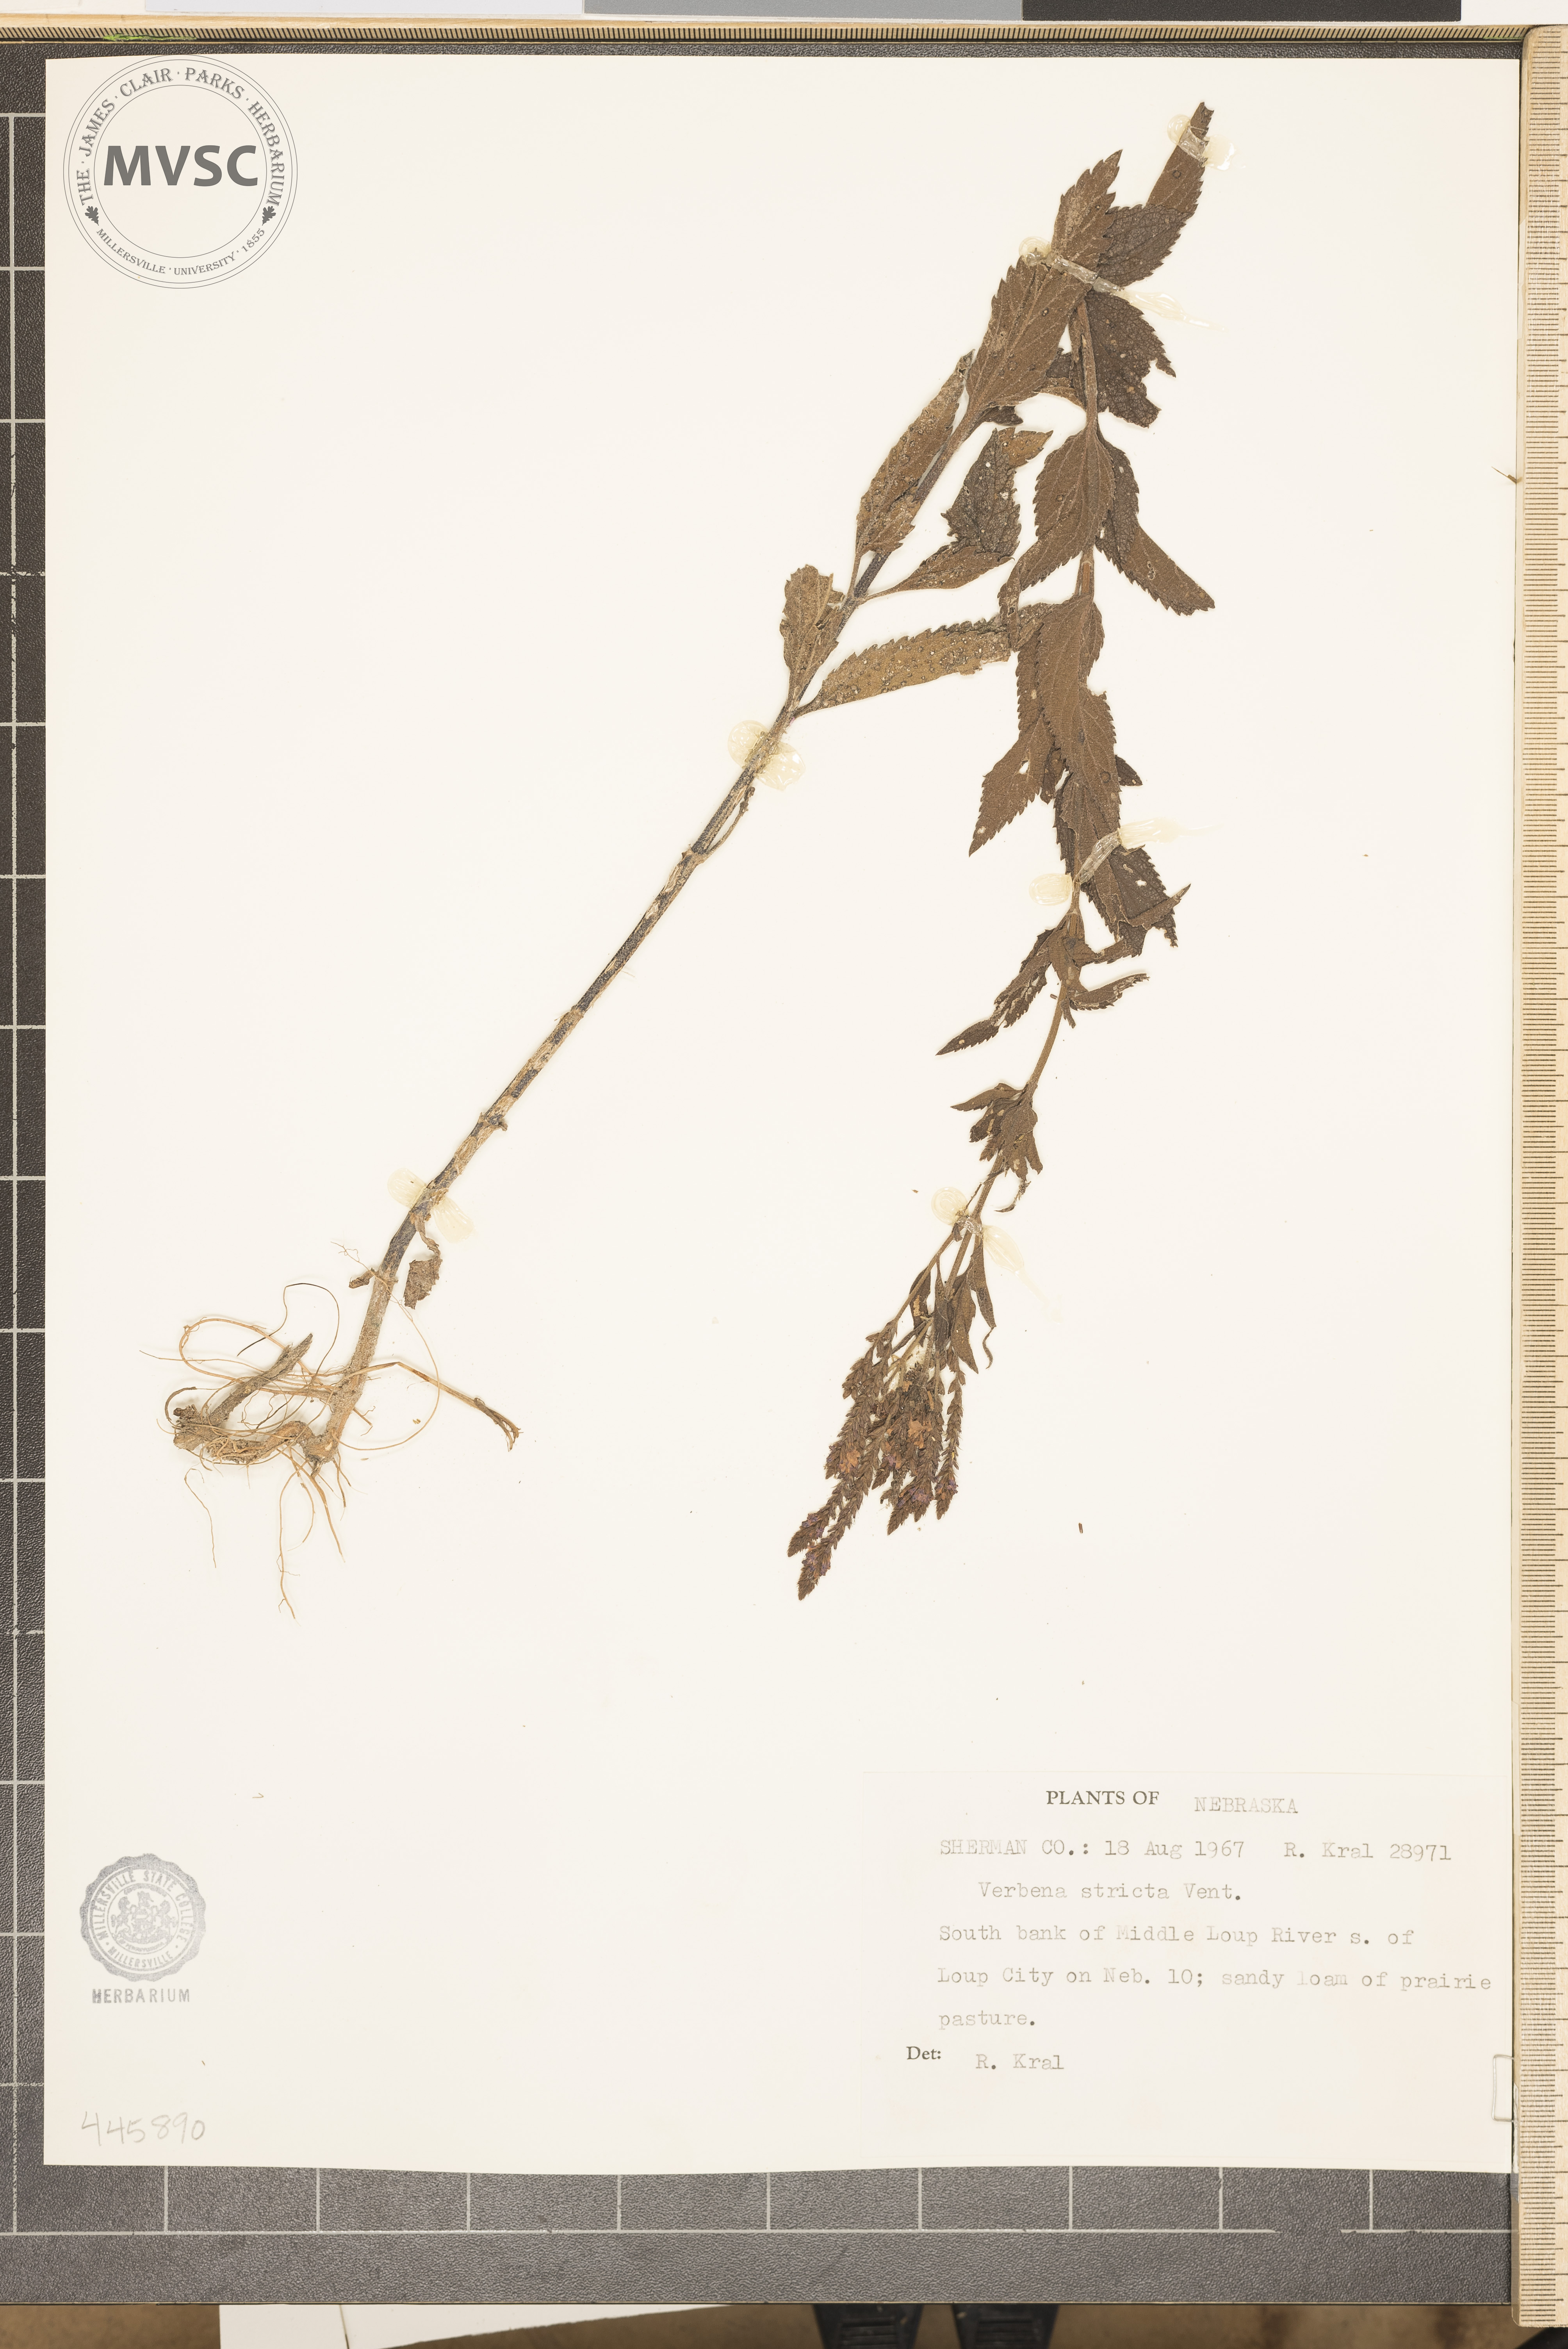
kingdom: Plantae
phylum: Tracheophyta
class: Magnoliopsida
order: Lamiales
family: Verbenaceae
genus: Verbena
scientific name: Verbena stricta
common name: Hoary vervain
